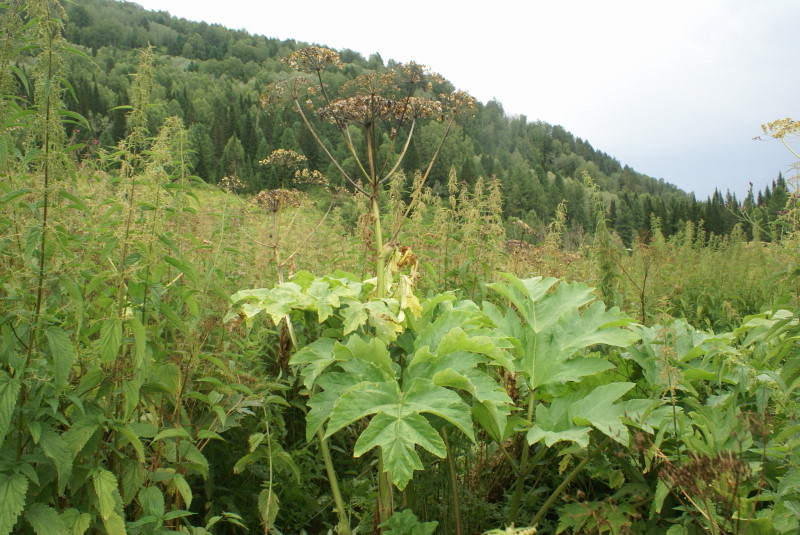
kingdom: Plantae
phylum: Tracheophyta
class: Magnoliopsida
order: Apiales
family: Apiaceae
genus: Heracleum
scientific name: Heracleum dissectum
